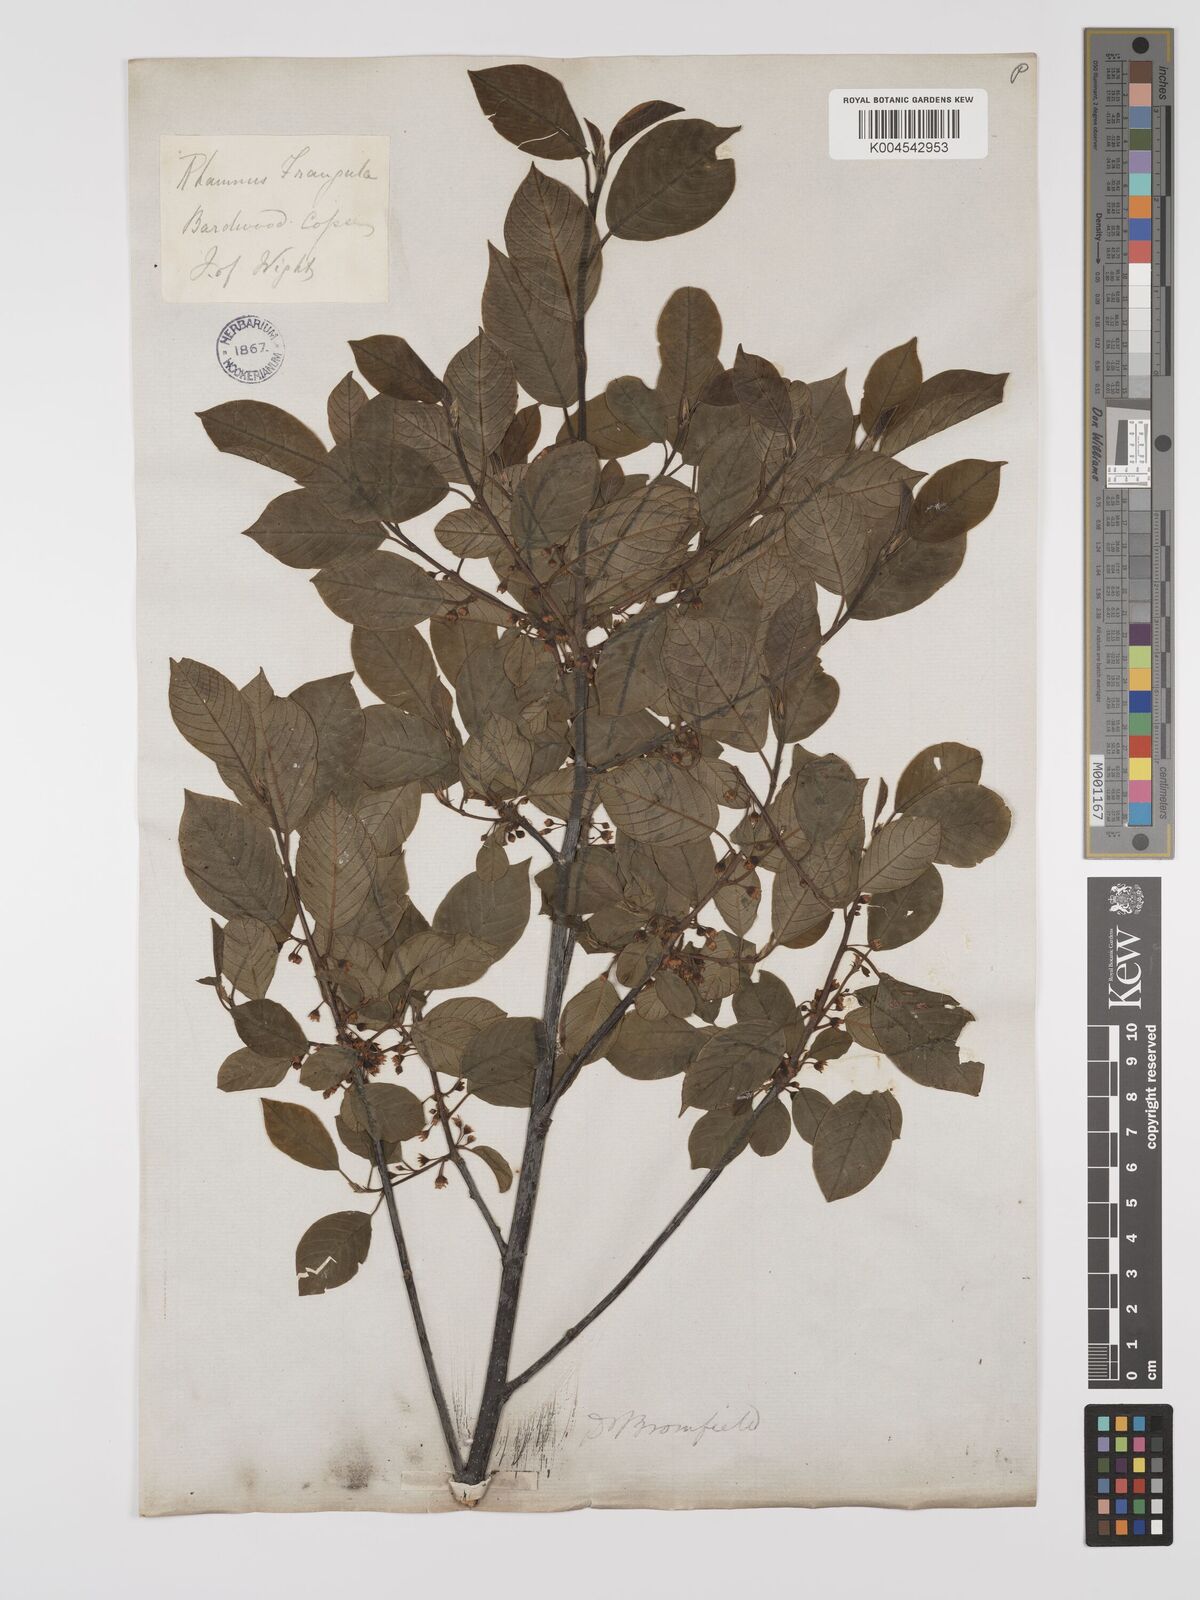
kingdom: Plantae
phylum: Tracheophyta
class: Magnoliopsida
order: Rosales
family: Rhamnaceae
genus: Frangula
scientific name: Frangula alnus
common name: Alder buckthorn
